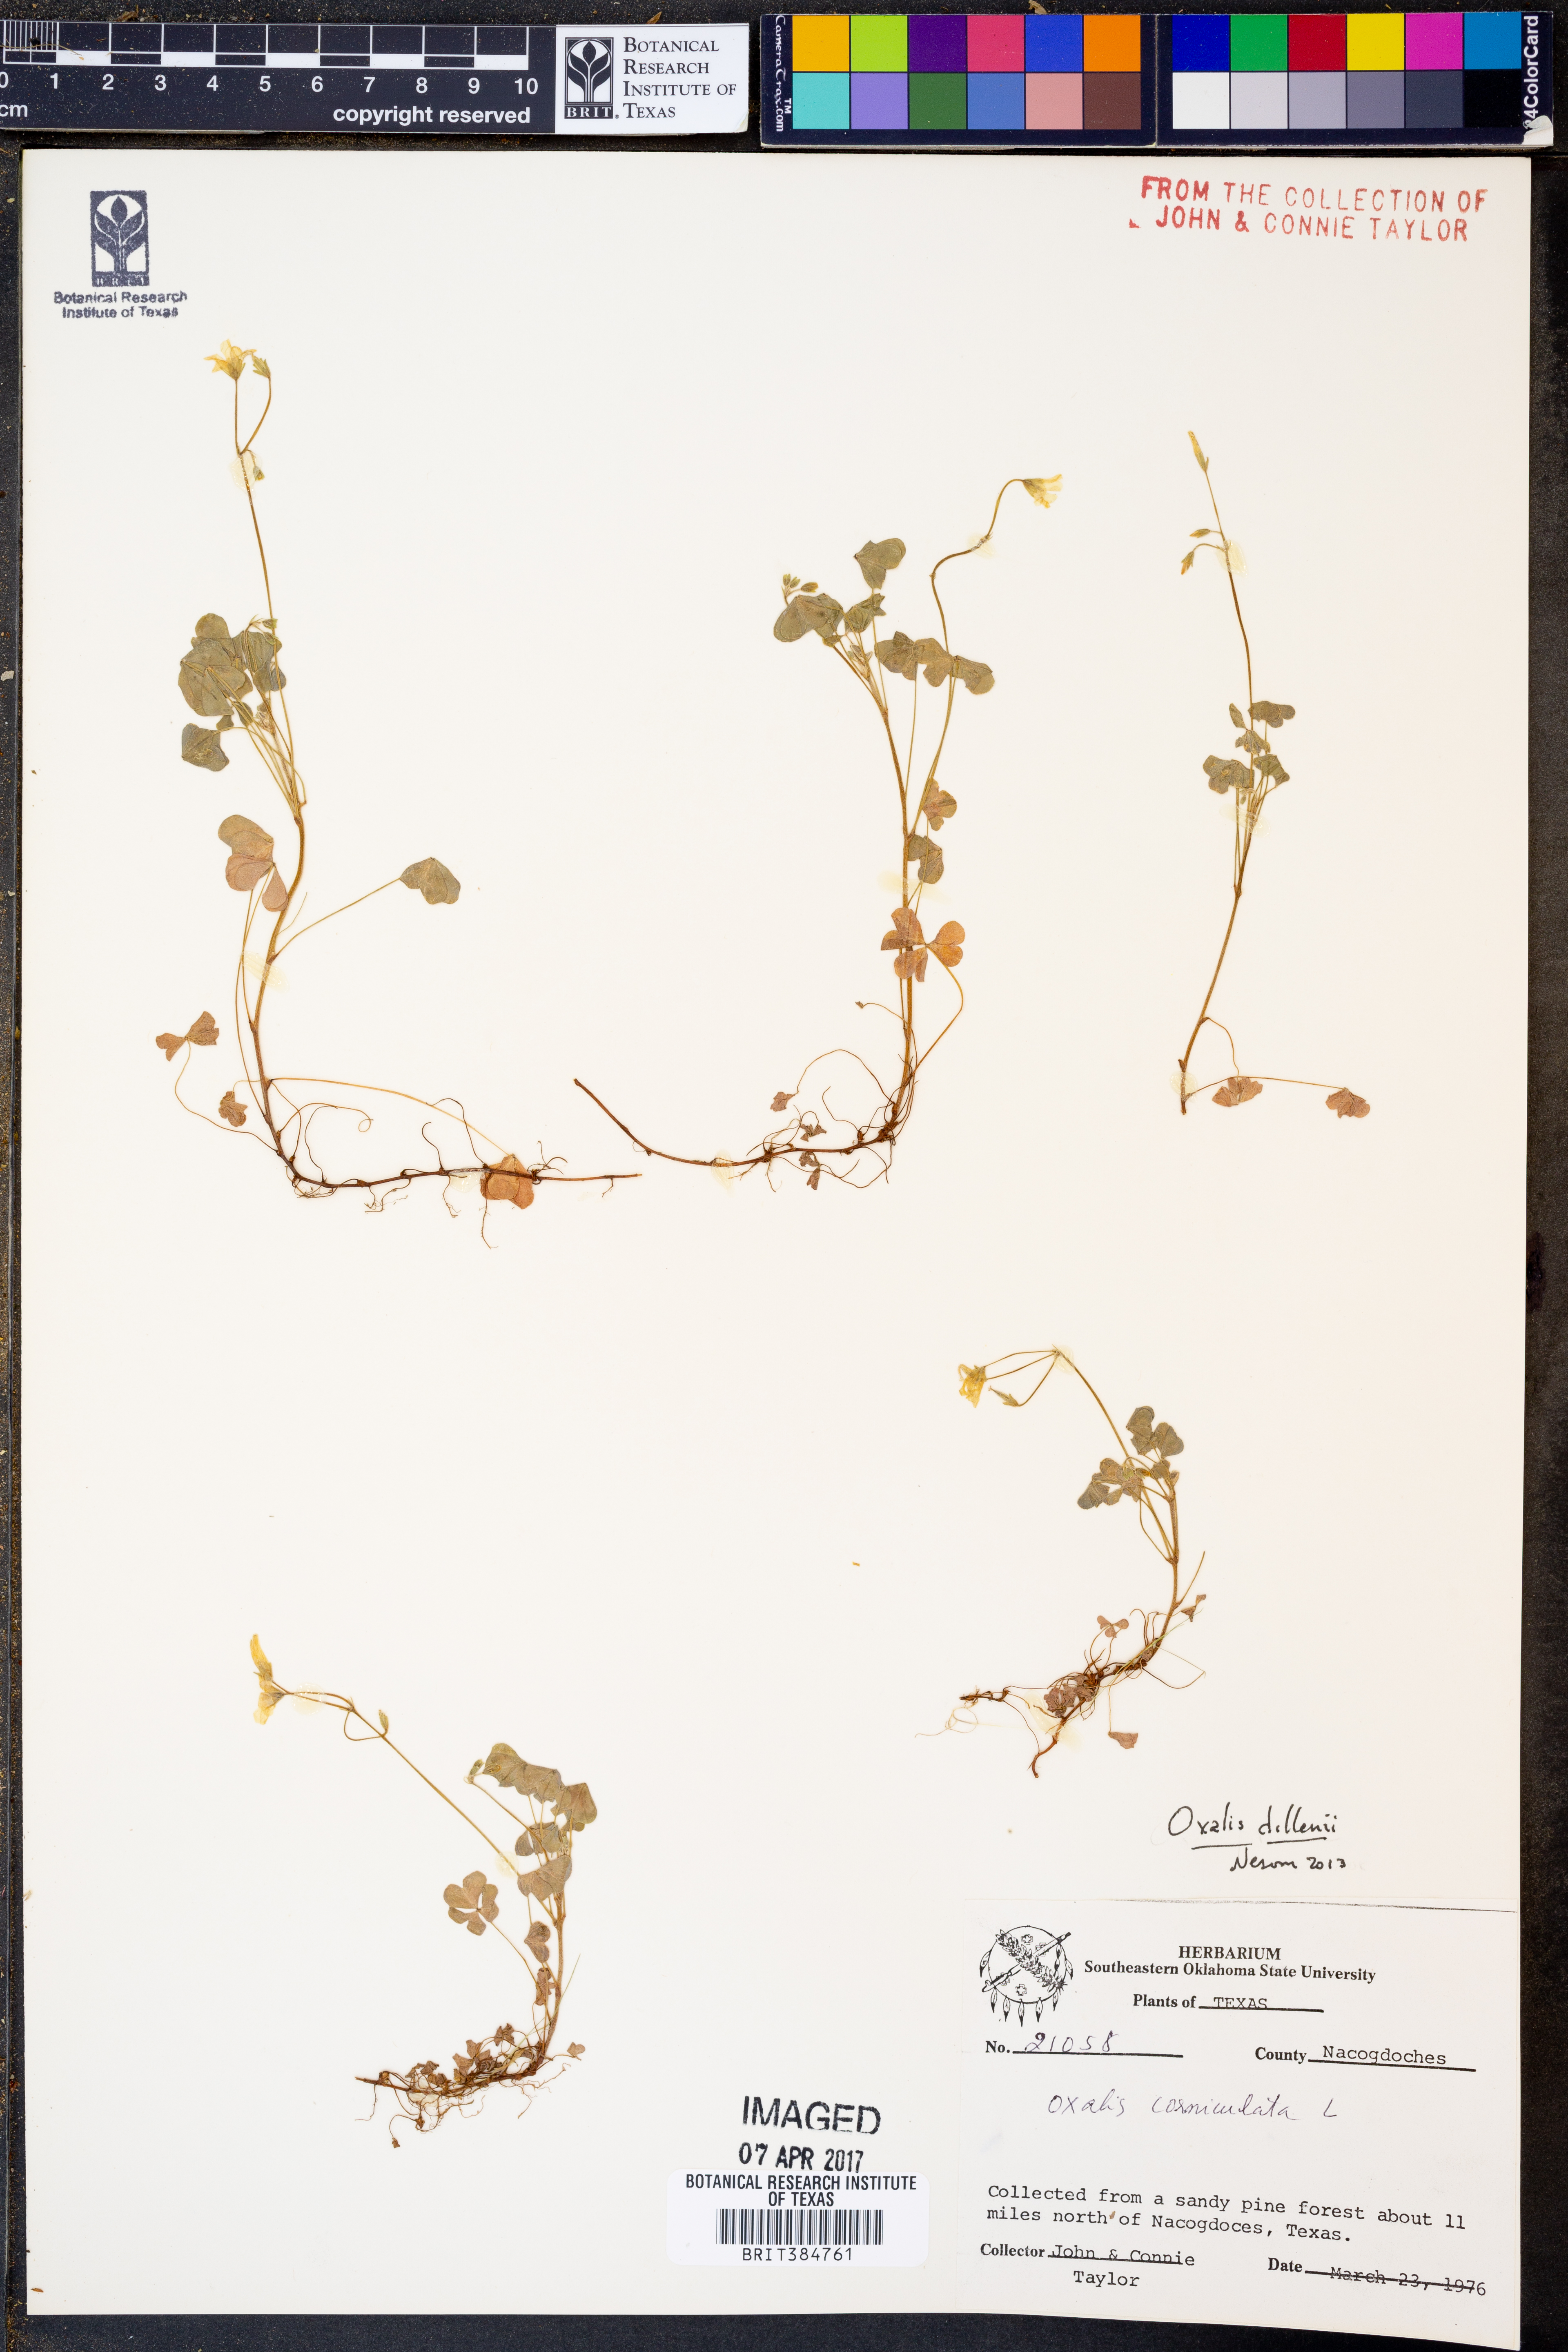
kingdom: Plantae
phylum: Tracheophyta
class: Magnoliopsida
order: Oxalidales
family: Oxalidaceae
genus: Oxalis
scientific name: Oxalis dillenii
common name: Sussex yellow-sorrel
